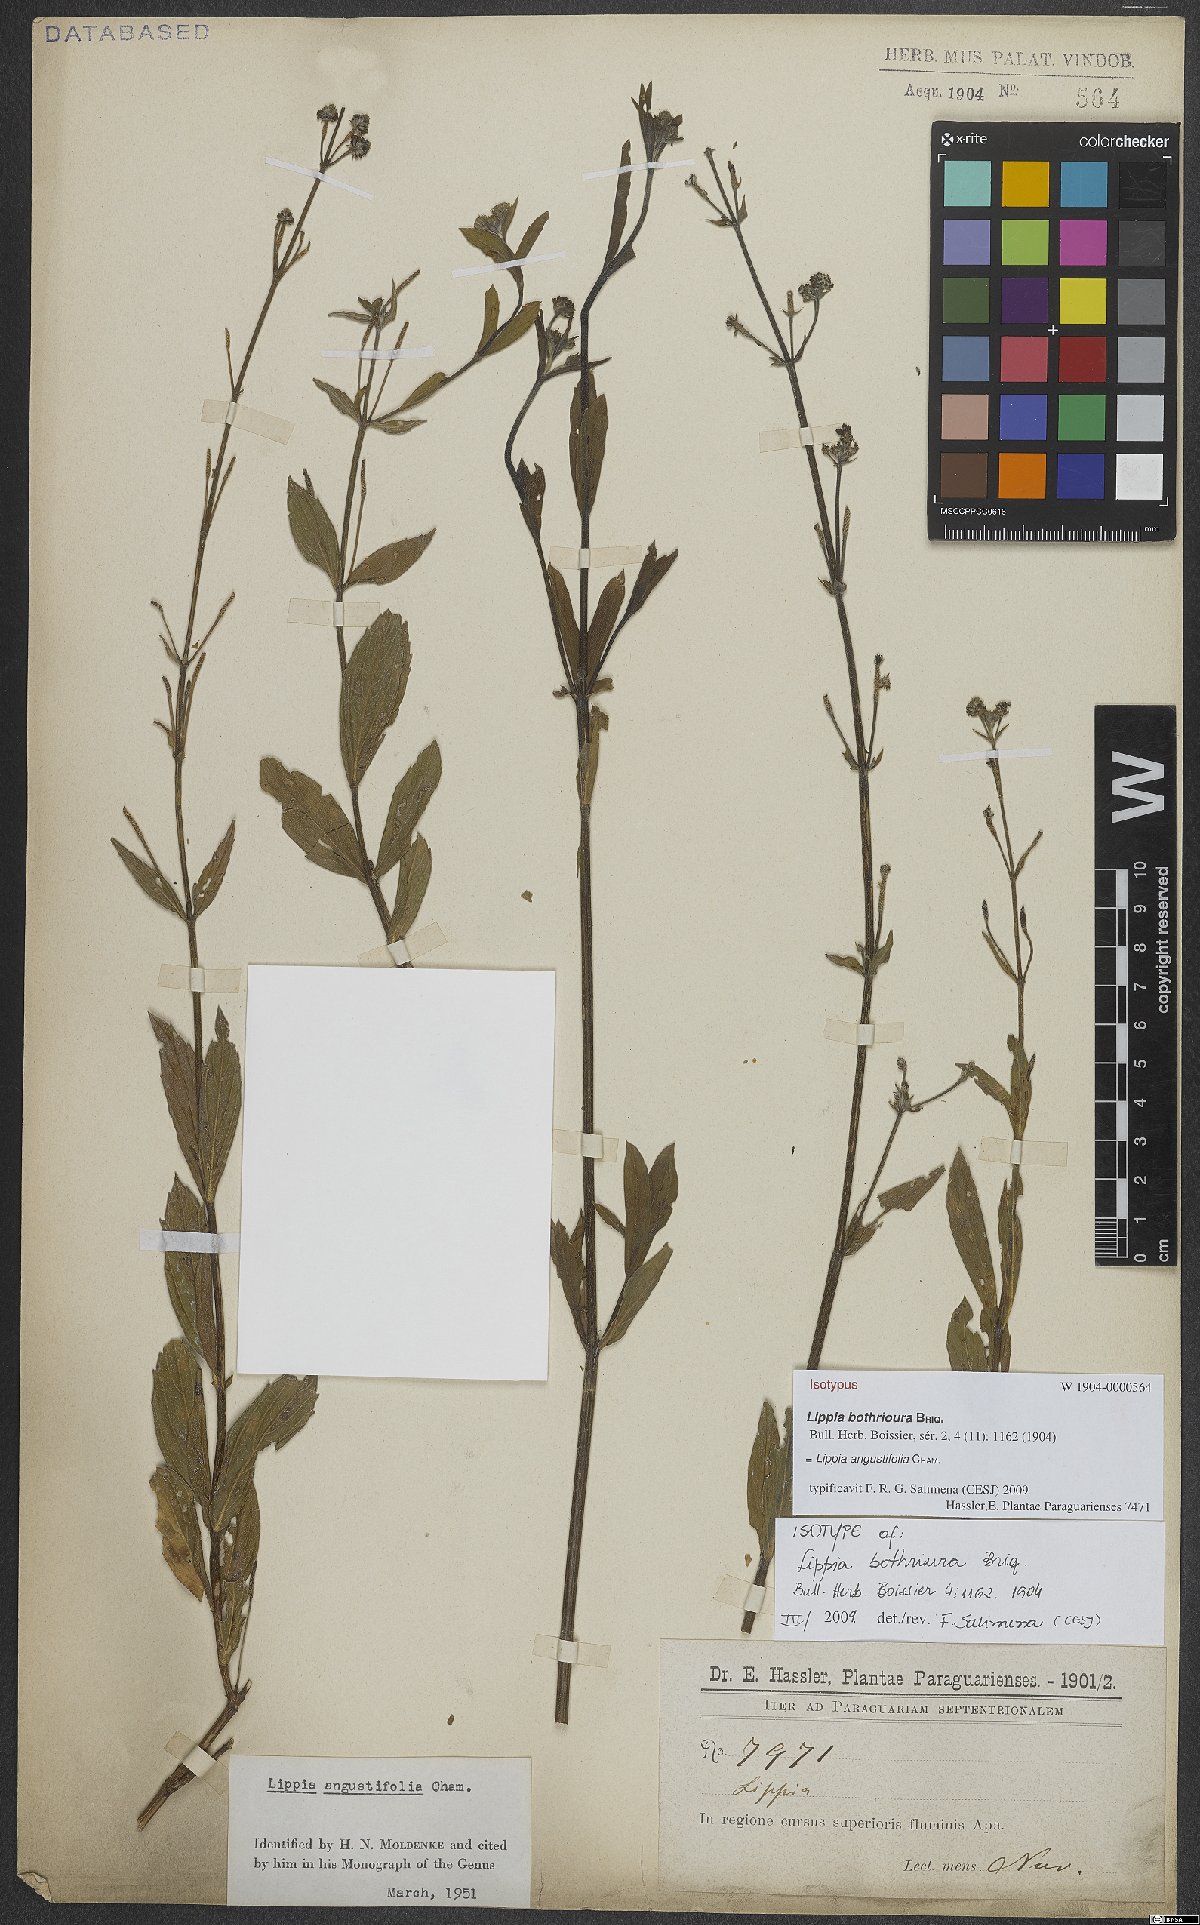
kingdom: Plantae
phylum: Tracheophyta
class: Magnoliopsida
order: Lamiales
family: Verbenaceae
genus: Lippia
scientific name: Lippia angustifolia
